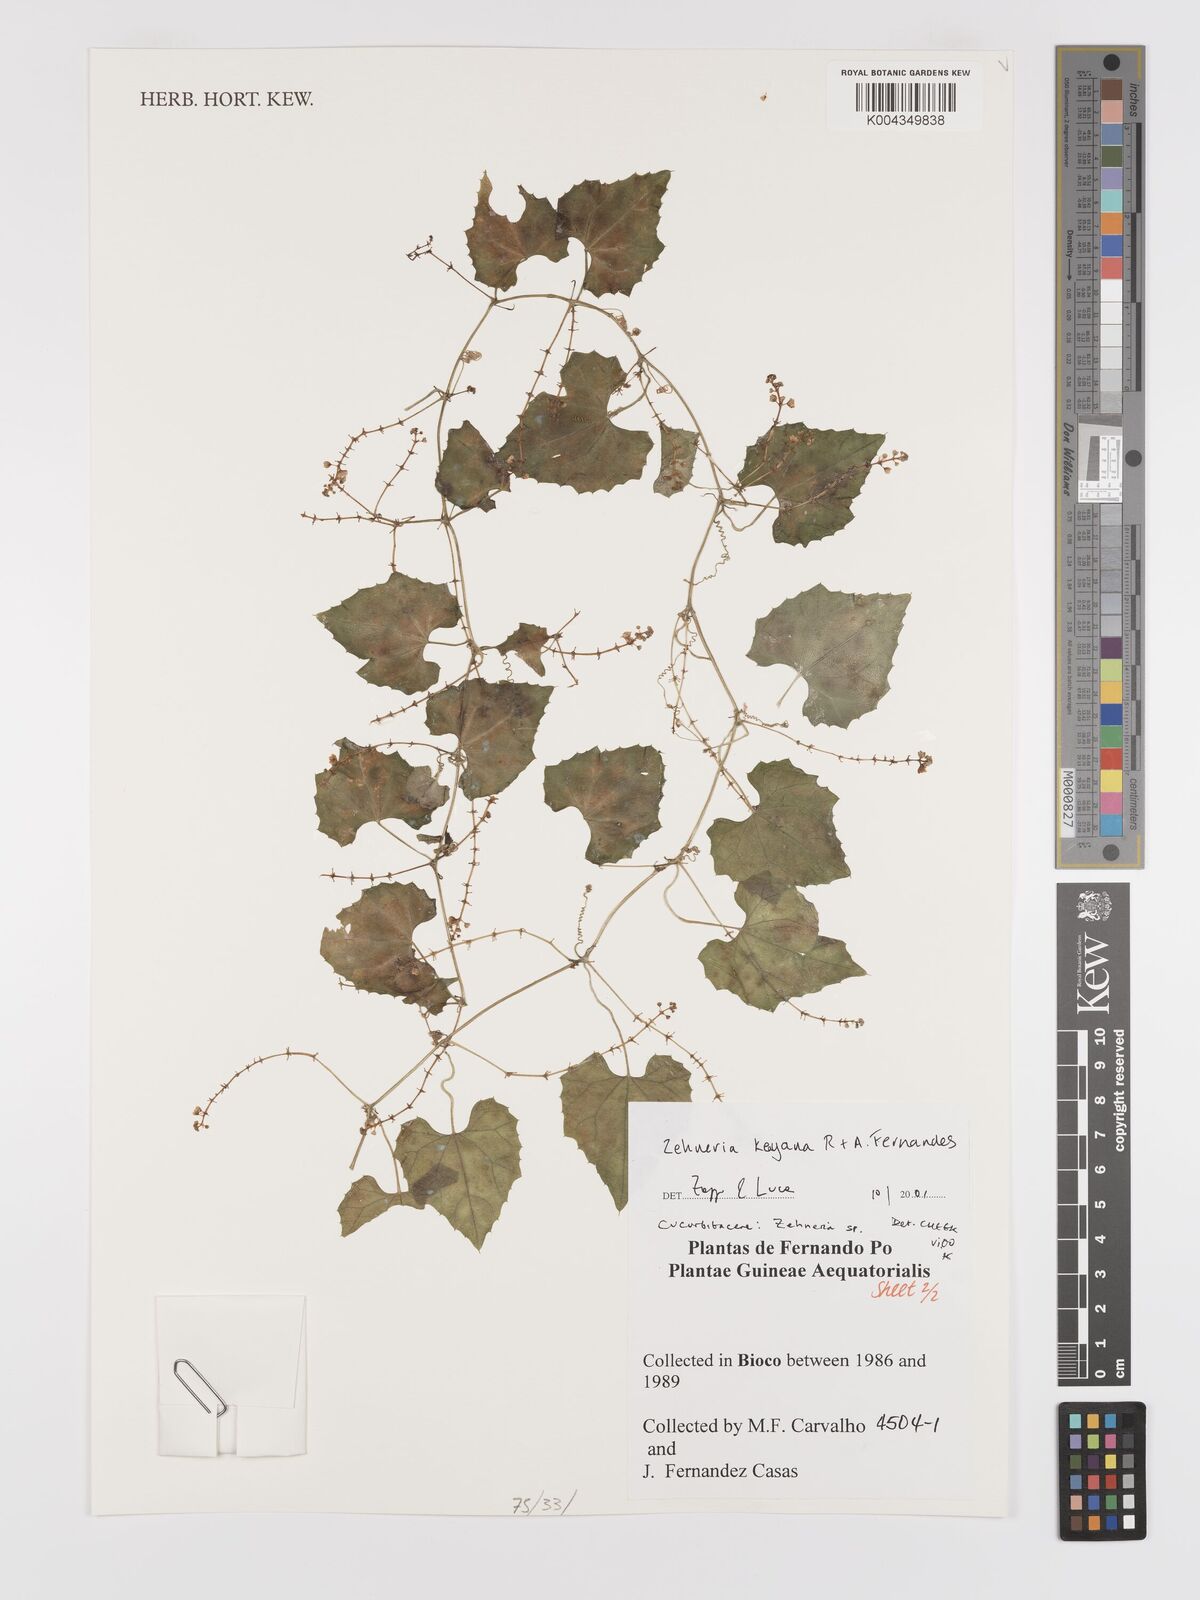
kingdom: Plantae
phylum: Tracheophyta
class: Magnoliopsida
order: Cucurbitales
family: Cucurbitaceae
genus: Zehneria
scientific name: Zehneria keayana
